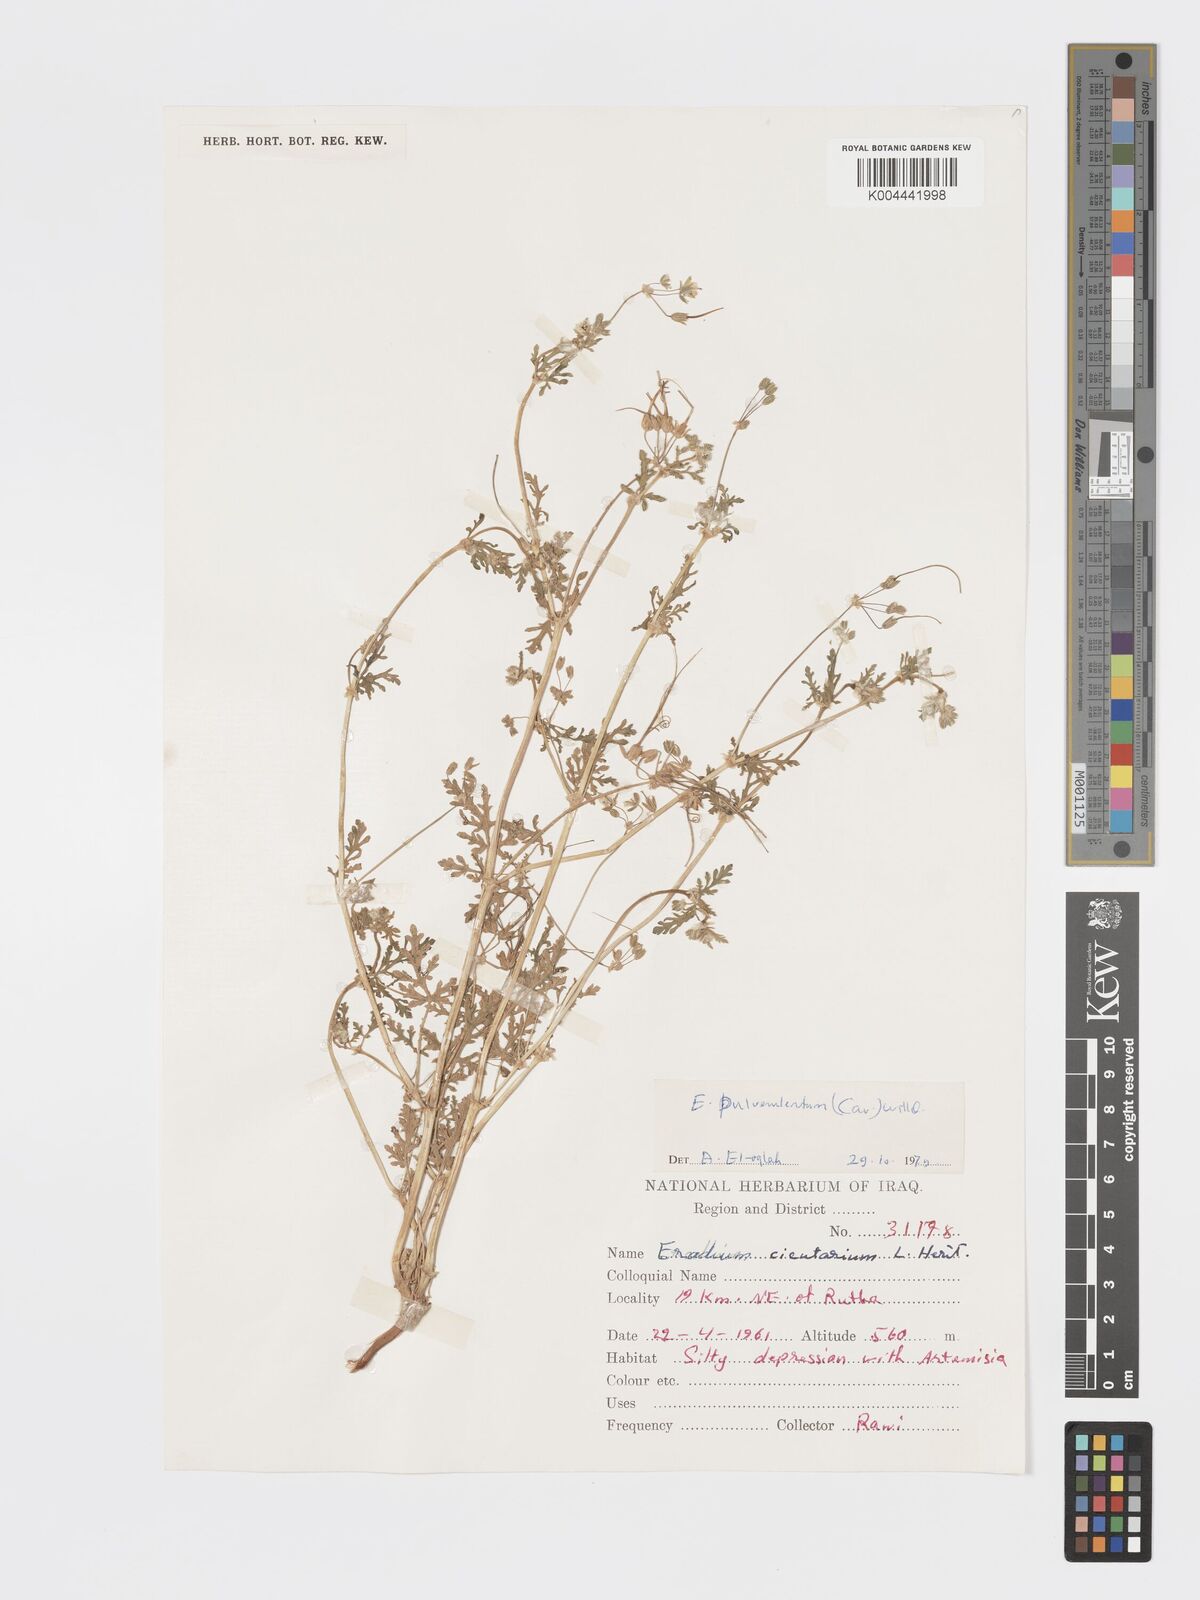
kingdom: Plantae
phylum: Tracheophyta
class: Magnoliopsida
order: Geraniales
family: Geraniaceae
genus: Erodium
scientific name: Erodium laciniatum
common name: Cutleaf stork's bill
